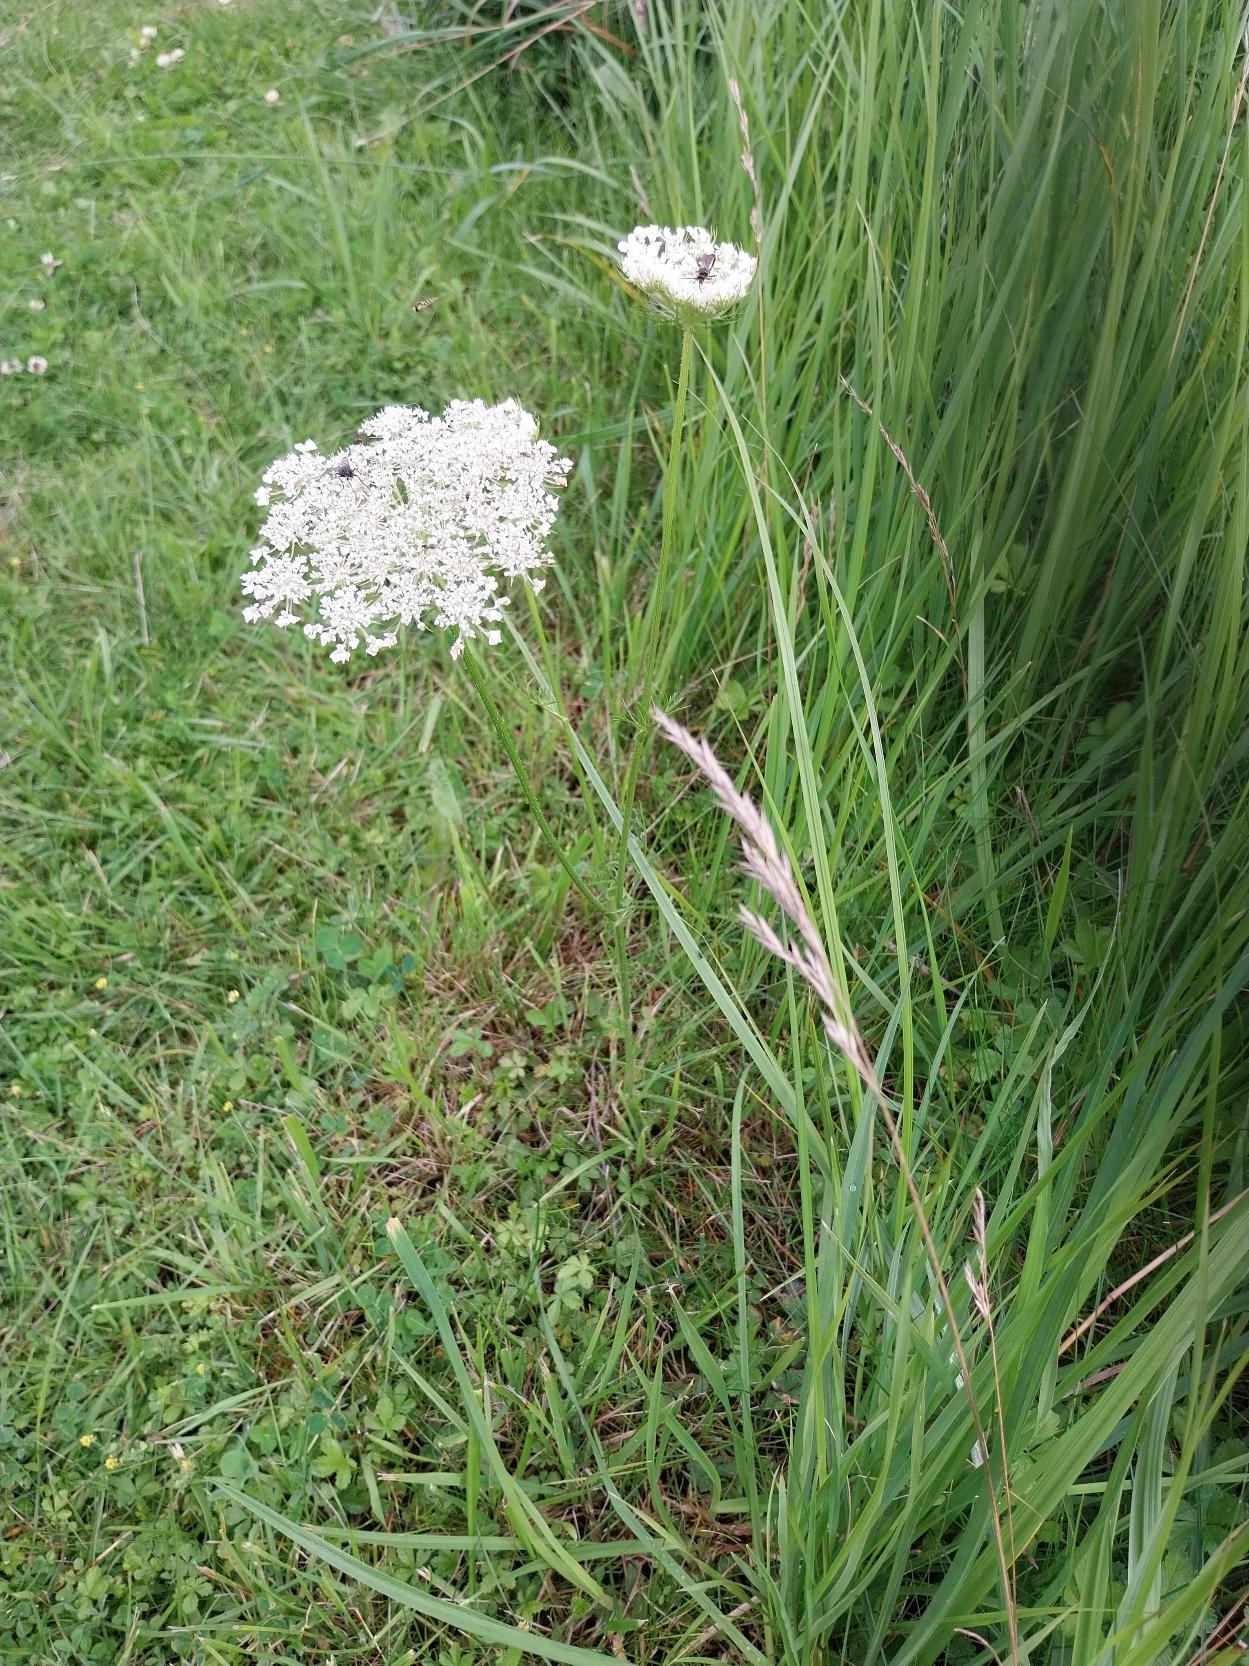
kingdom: Plantae
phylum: Tracheophyta
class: Magnoliopsida
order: Apiales
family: Apiaceae
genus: Daucus
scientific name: Daucus carota
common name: Vild gulerod
